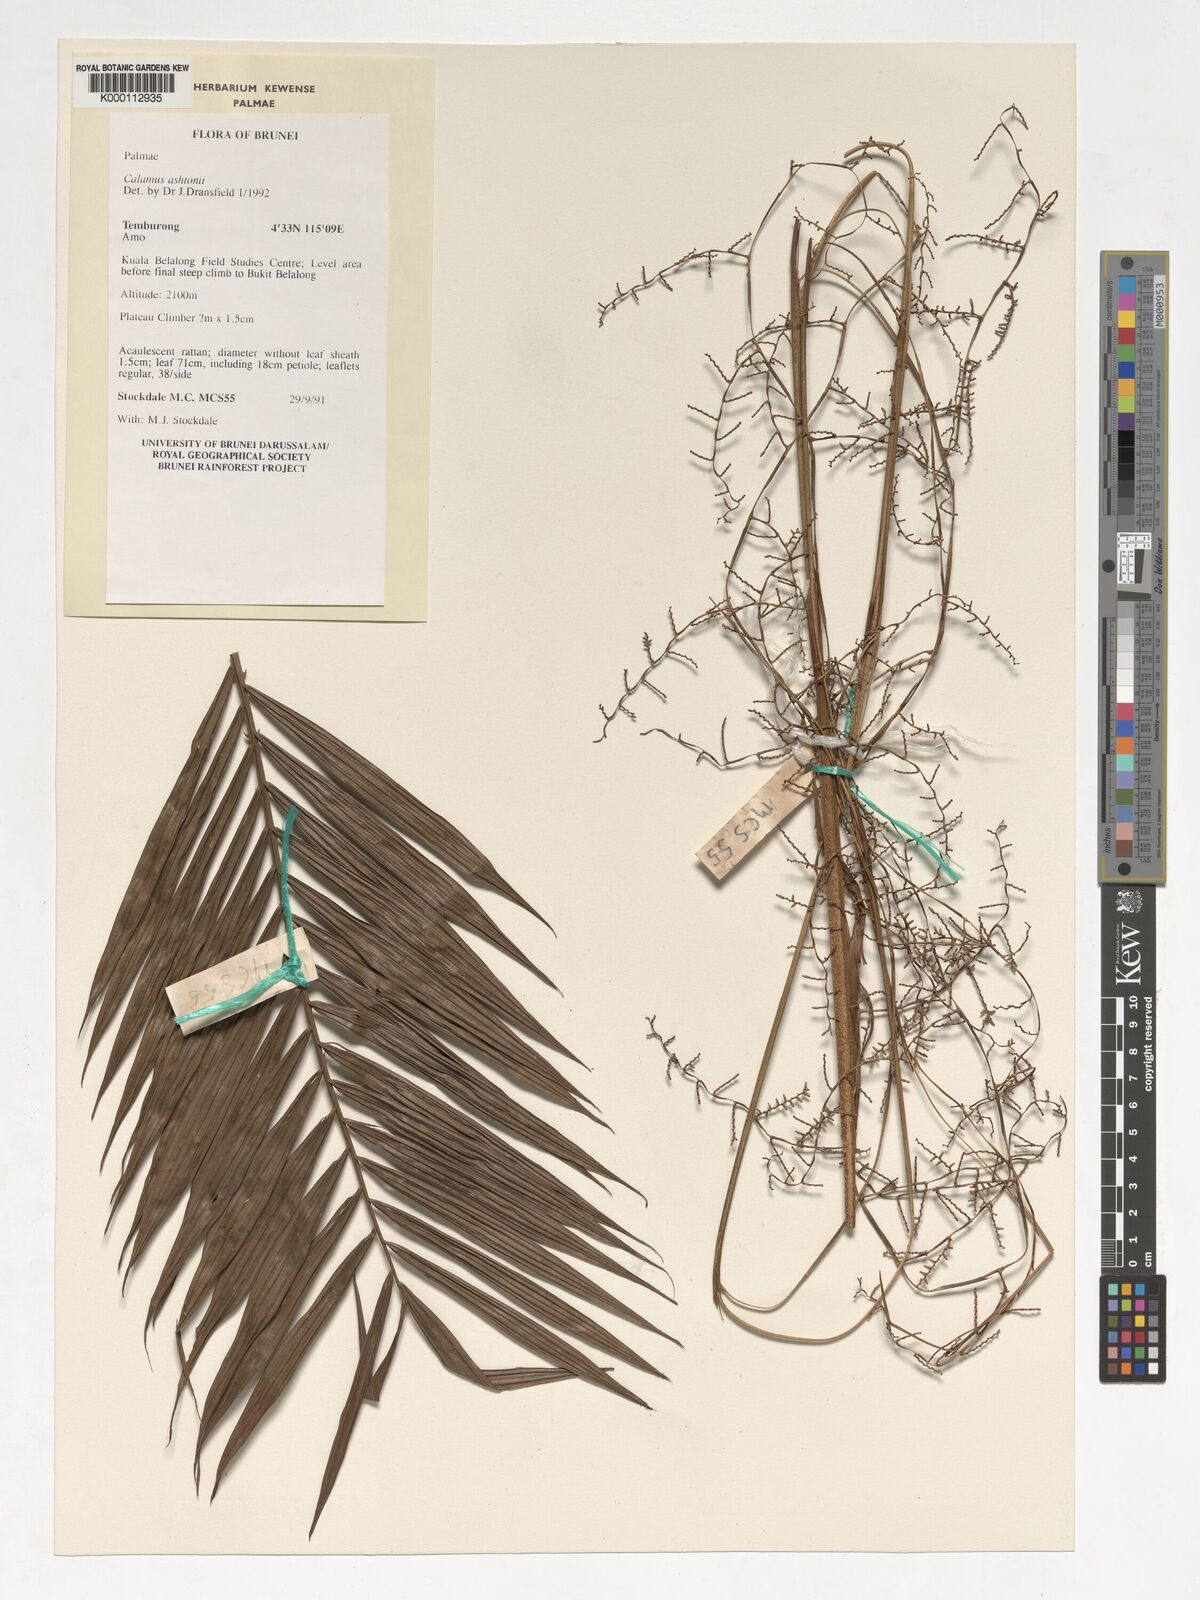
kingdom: Plantae
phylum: Tracheophyta
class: Liliopsida
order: Arecales
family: Arecaceae
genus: Calamus
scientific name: Calamus ashtonii
